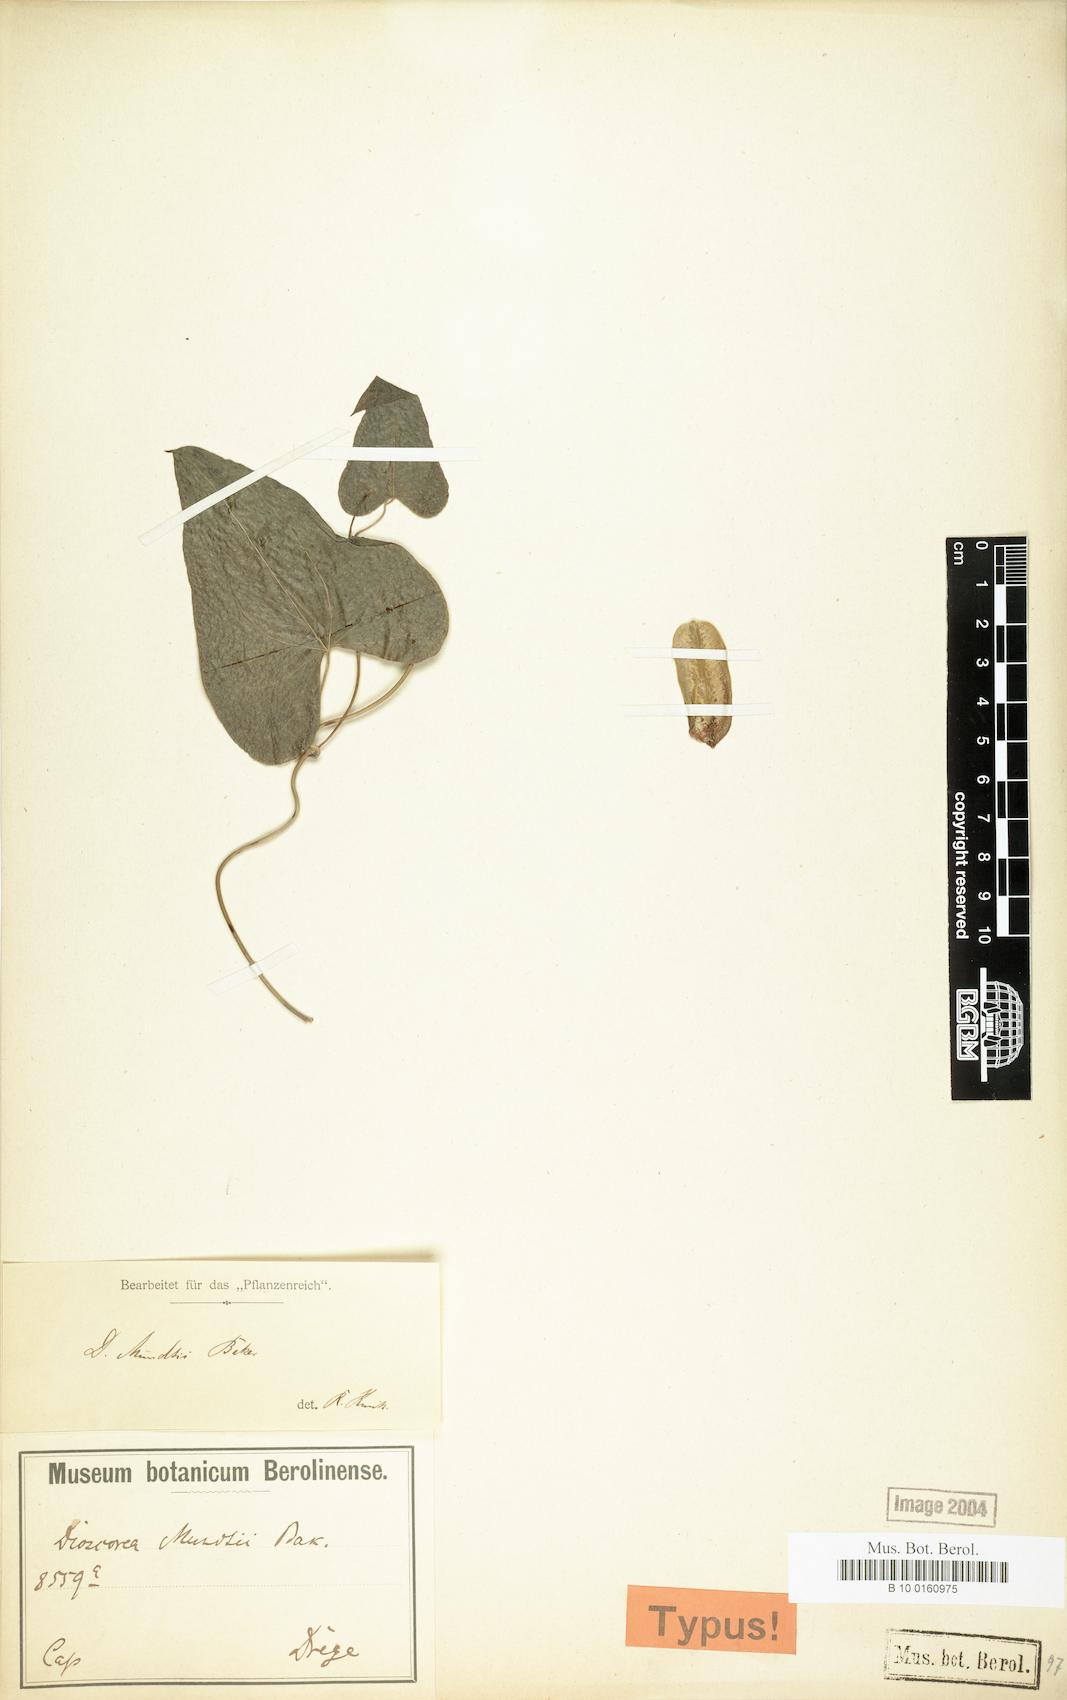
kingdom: Plantae
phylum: Tracheophyta
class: Liliopsida
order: Dioscoreales
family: Dioscoreaceae
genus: Dioscorea
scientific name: Dioscorea mundii
